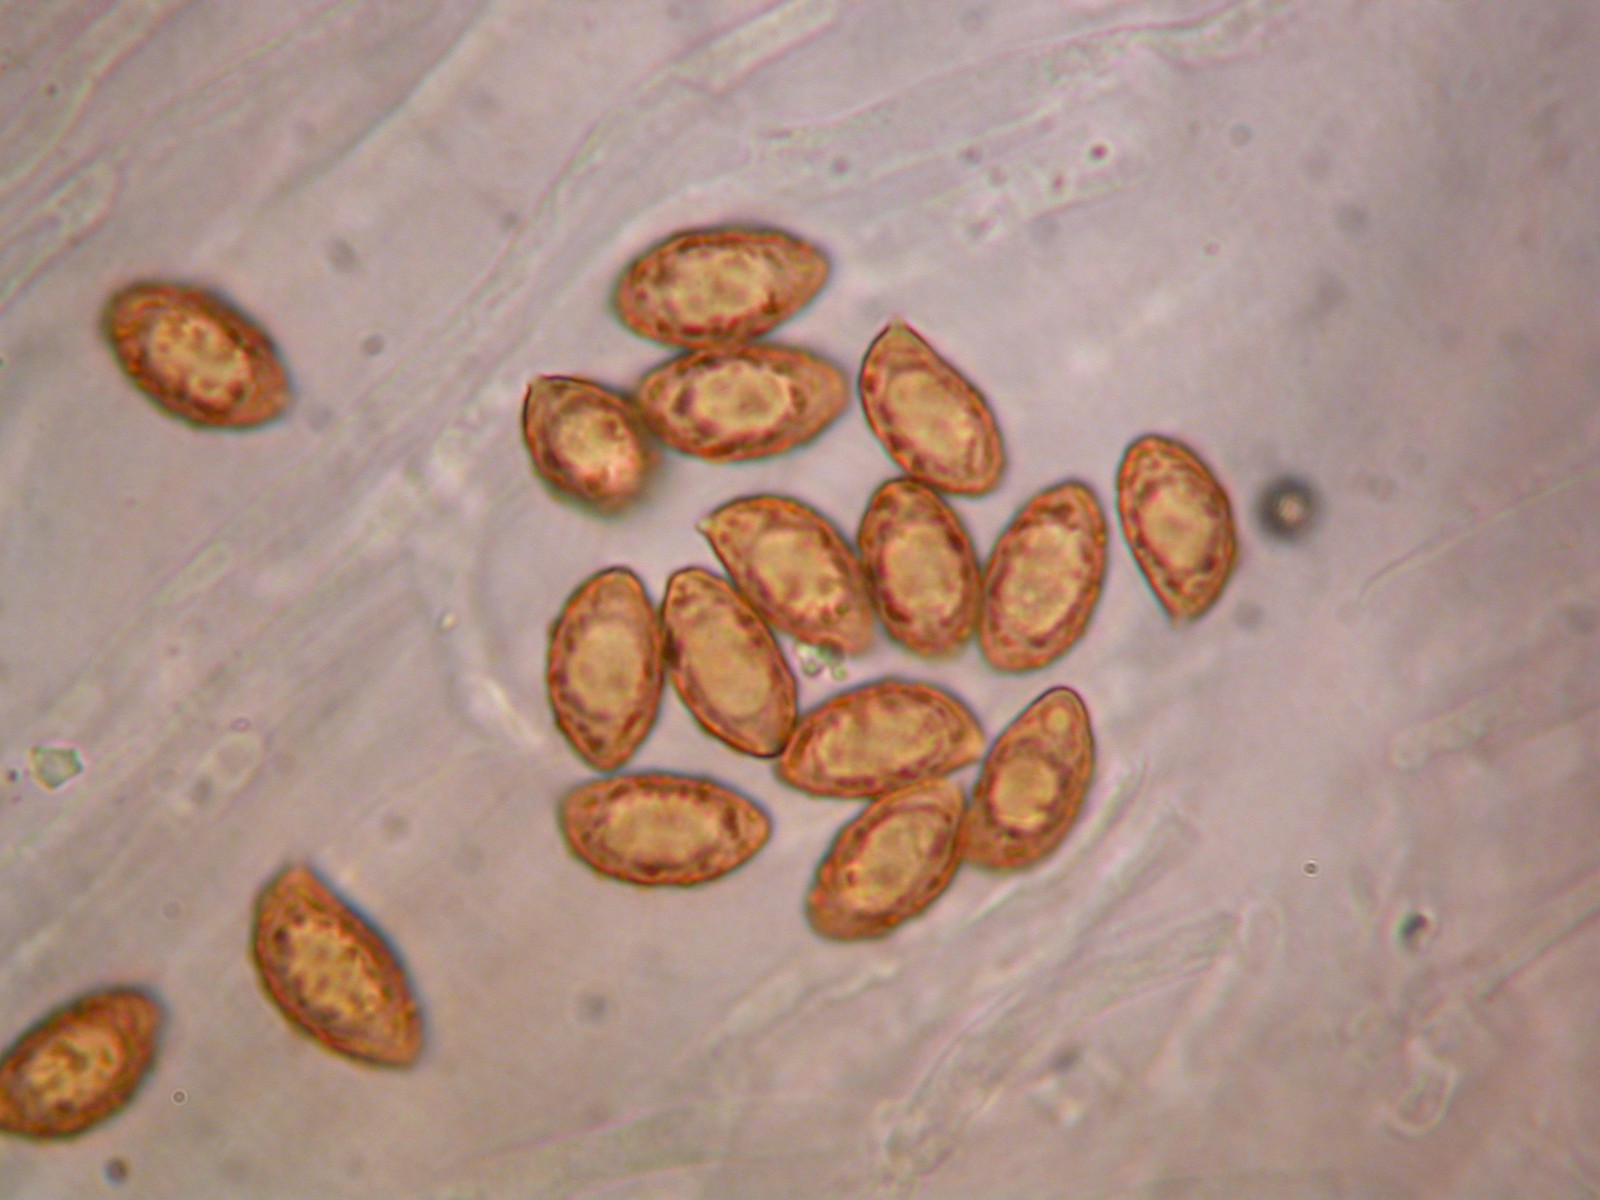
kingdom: Fungi
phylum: Basidiomycota
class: Agaricomycetes
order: Agaricales
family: Cortinariaceae
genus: Cortinarius
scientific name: Cortinarius alpinus
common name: Mountain webcap
